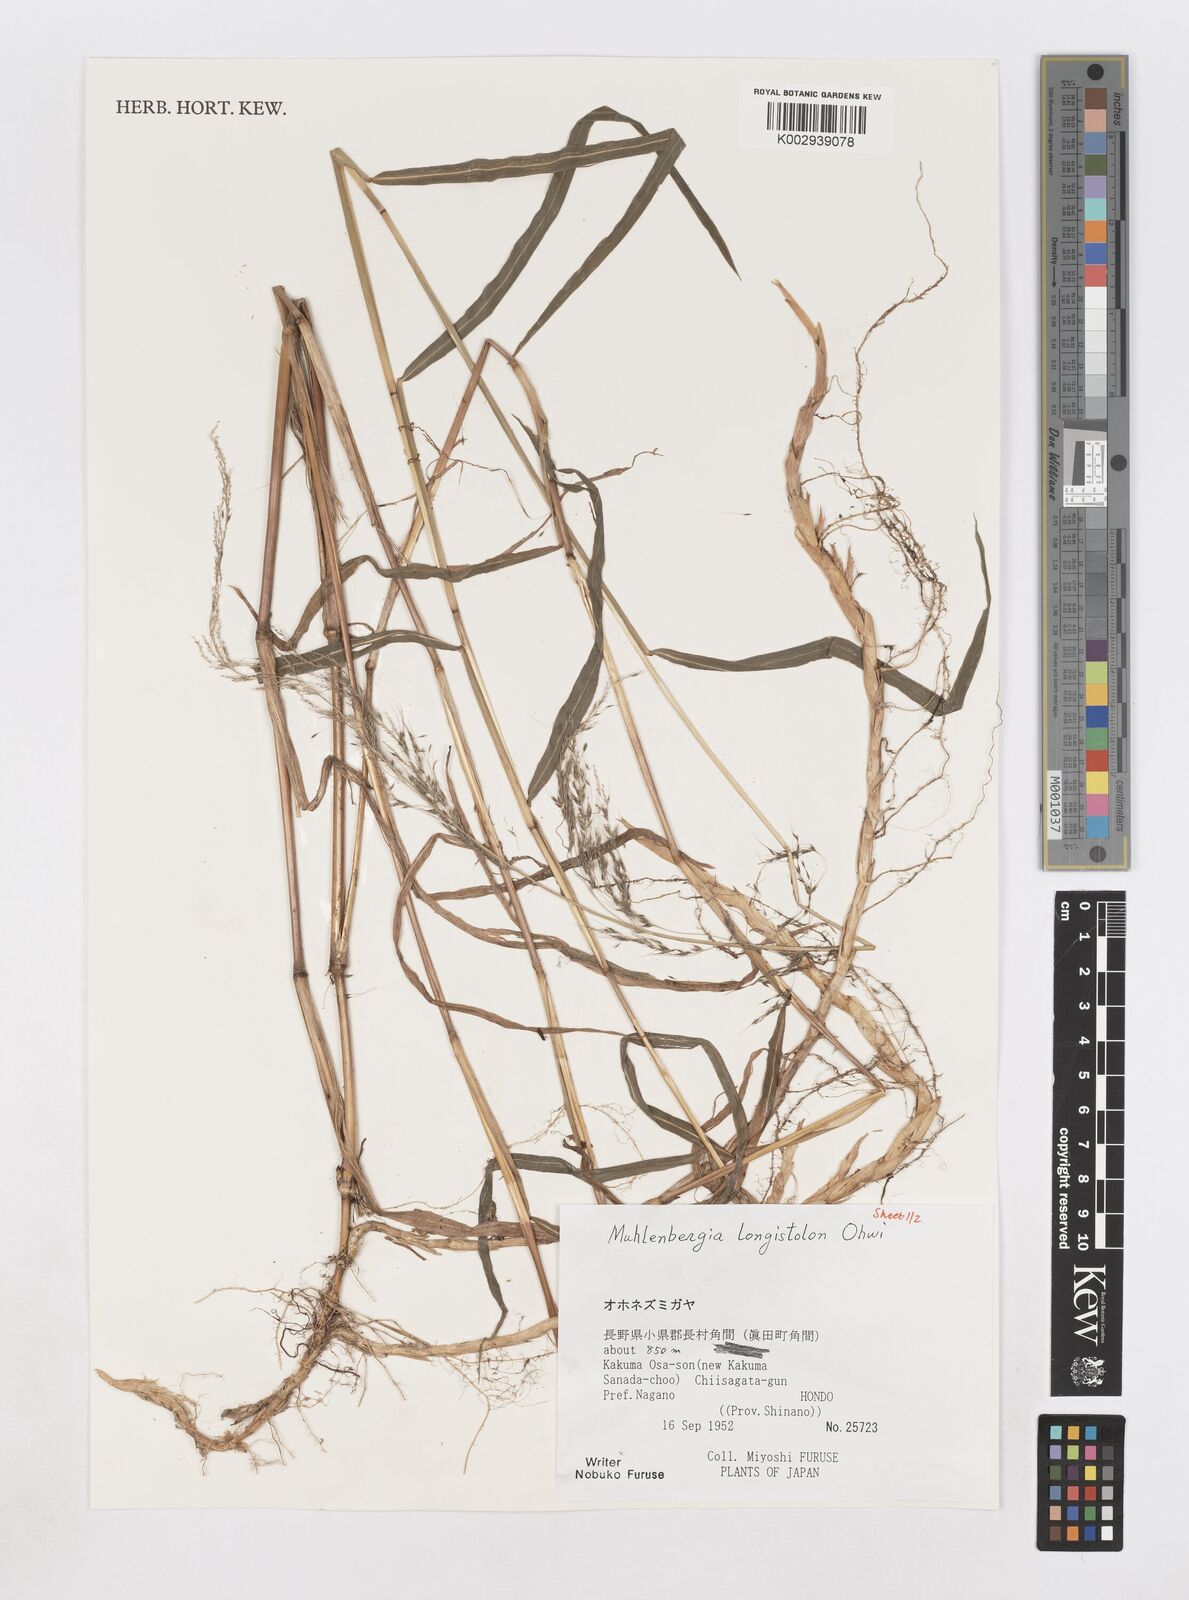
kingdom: Plantae
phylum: Tracheophyta
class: Liliopsida
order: Poales
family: Poaceae
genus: Muhlenbergia
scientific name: Muhlenbergia huegelii
